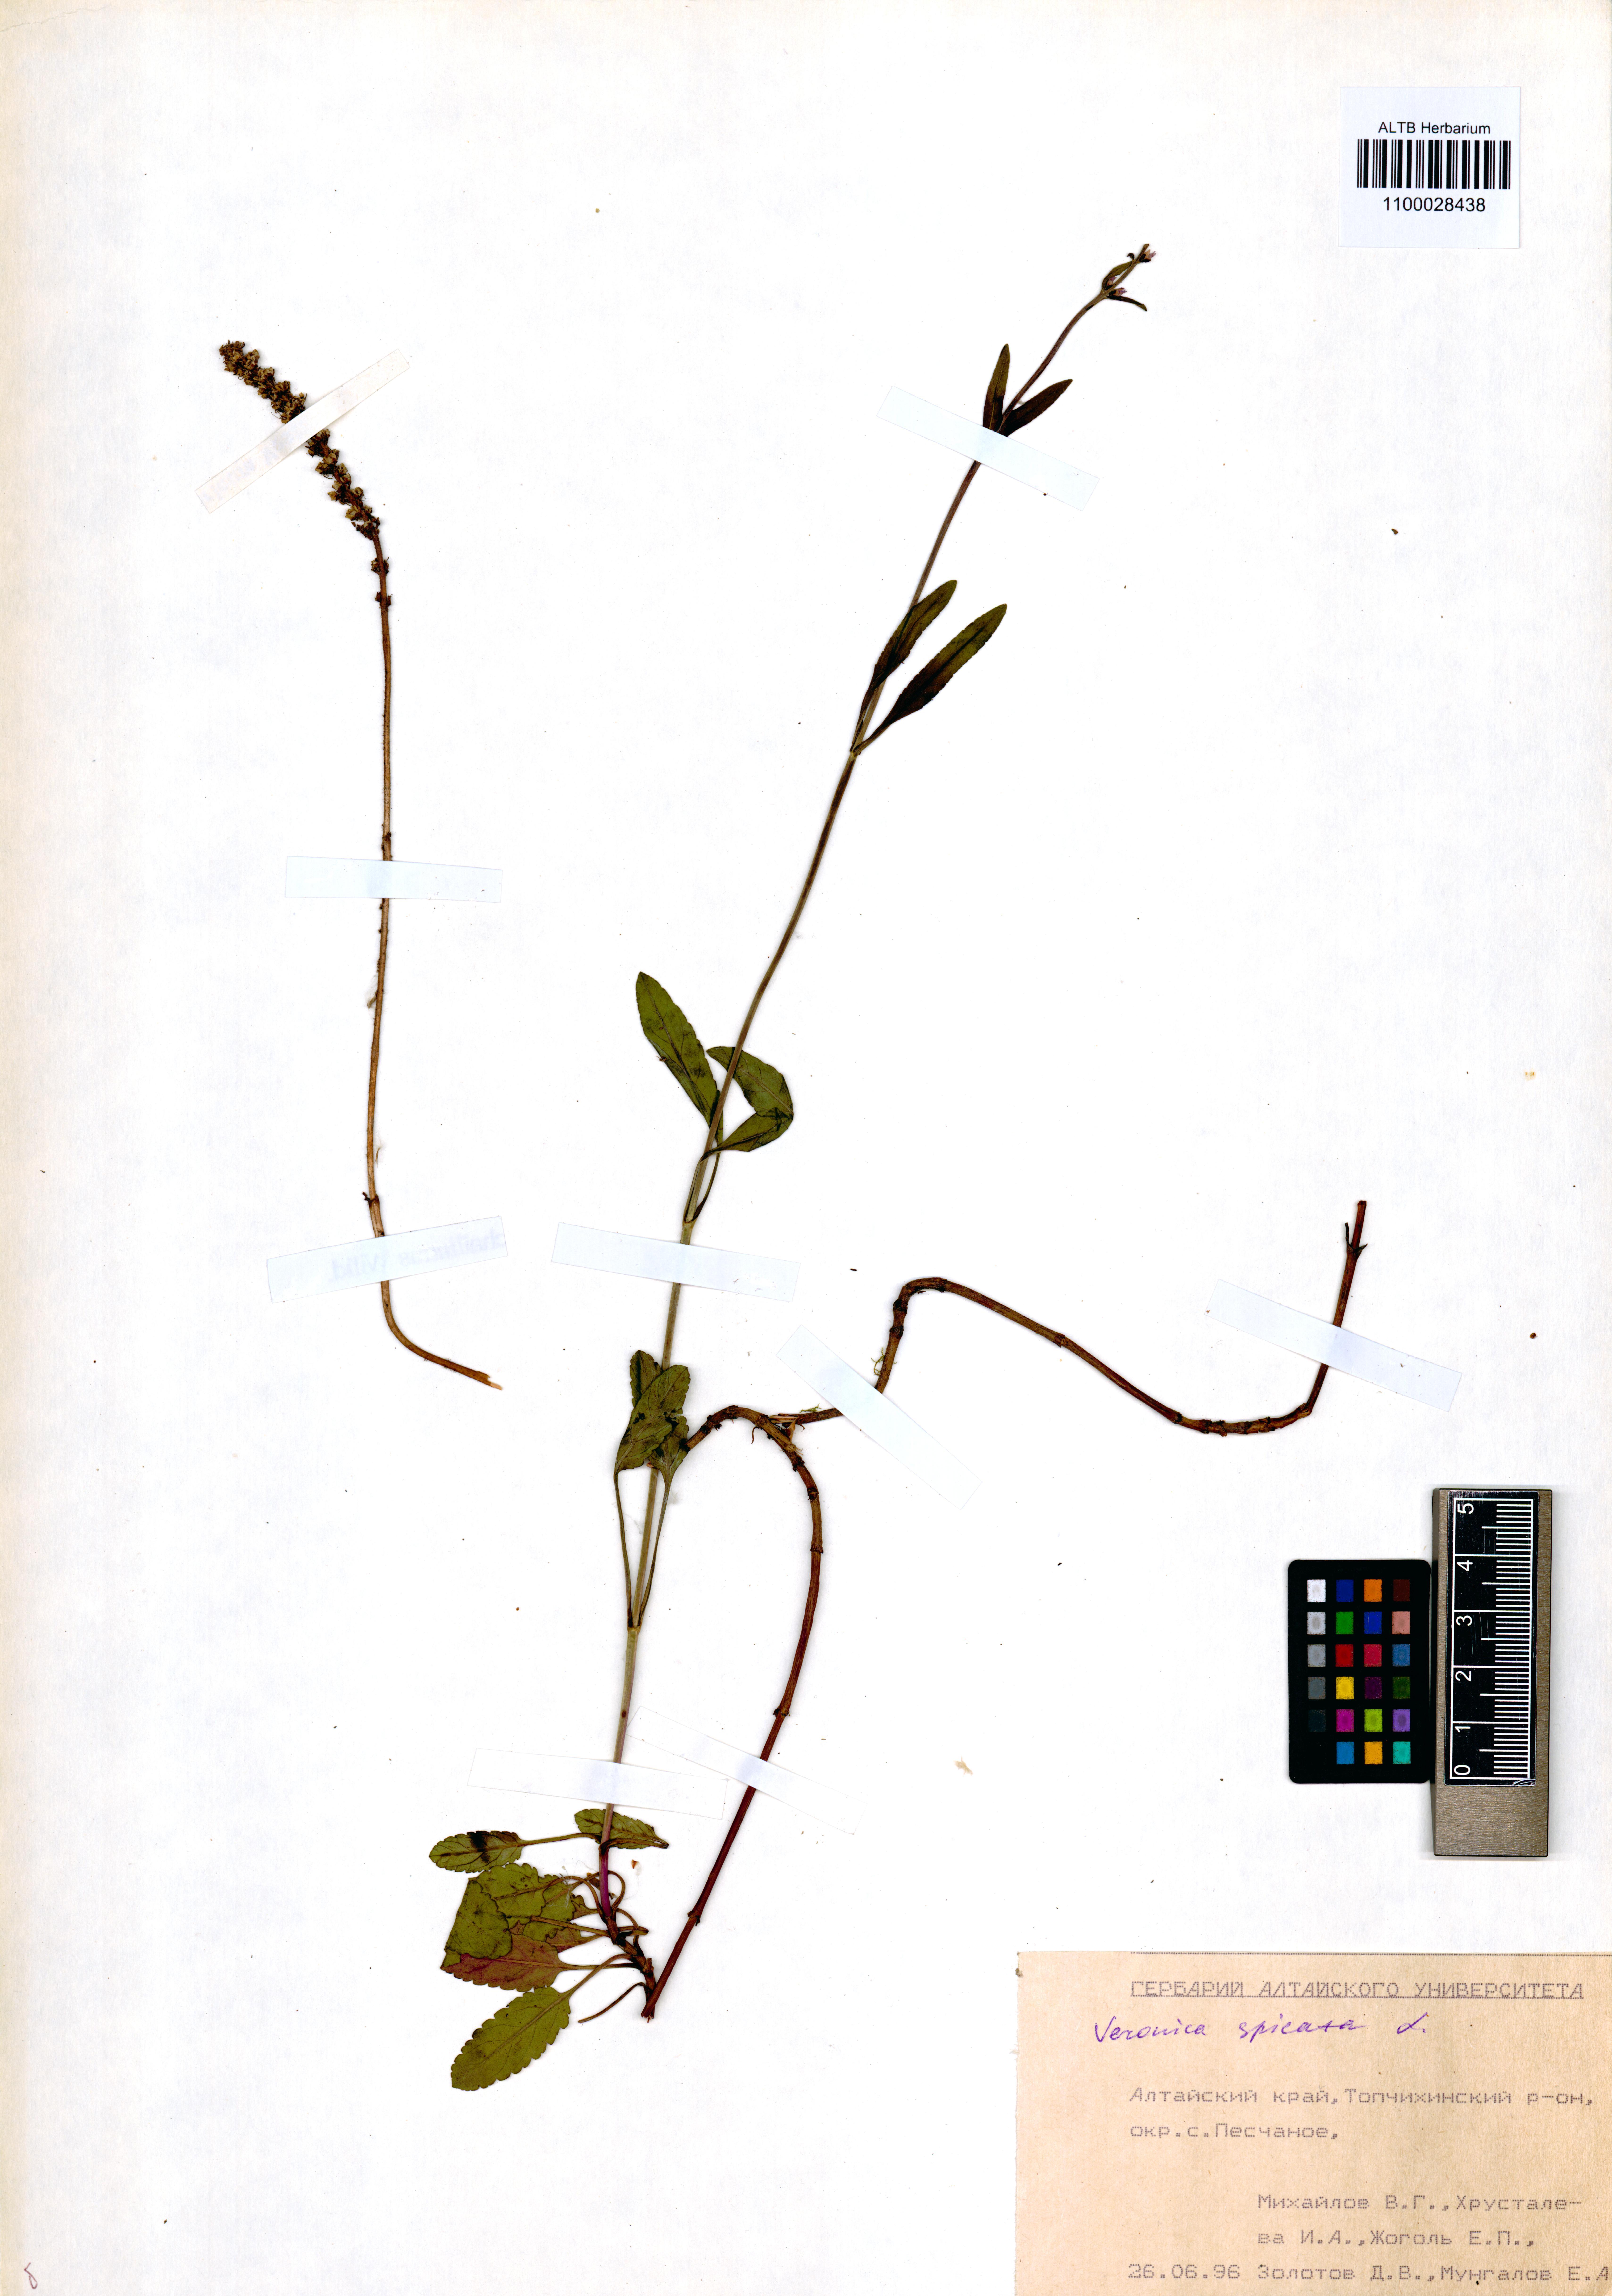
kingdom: Plantae
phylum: Tracheophyta
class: Magnoliopsida
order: Lamiales
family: Plantaginaceae
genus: Veronica
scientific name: Veronica spicata
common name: Spiked speedwell
